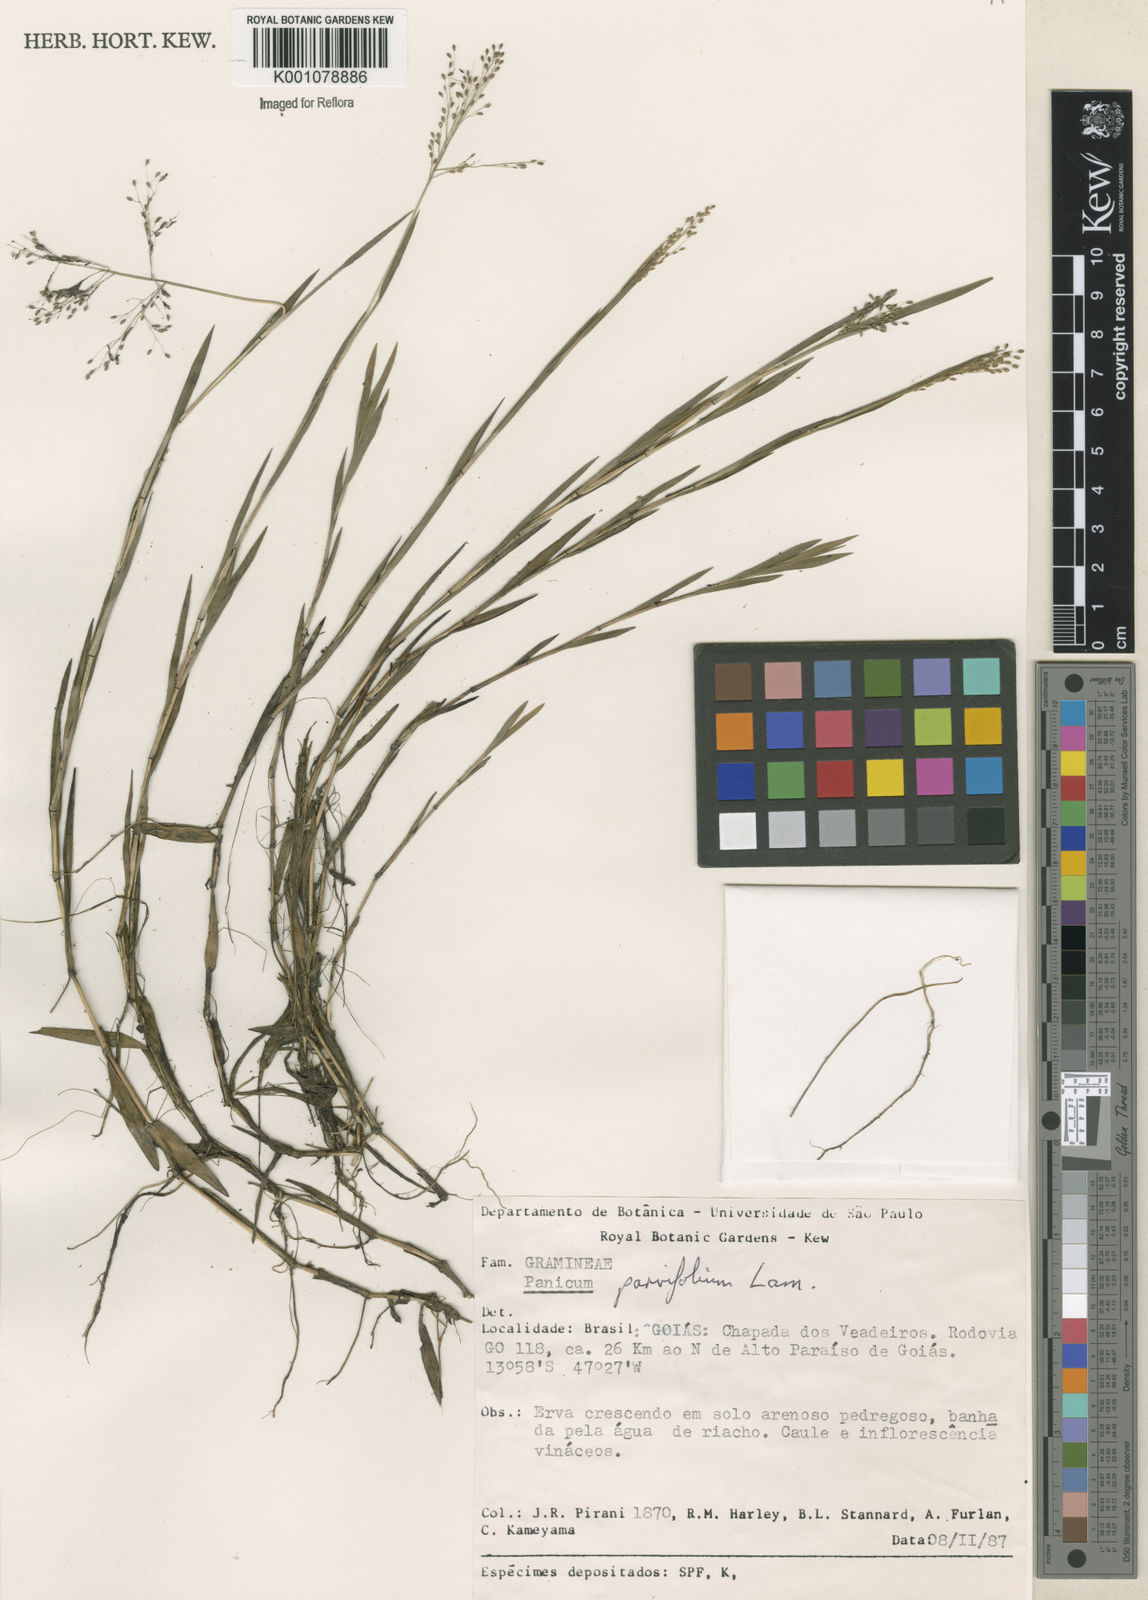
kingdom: Plantae
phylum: Tracheophyta
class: Liliopsida
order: Poales
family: Poaceae
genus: Trichanthecium
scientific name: Trichanthecium parvifolium
